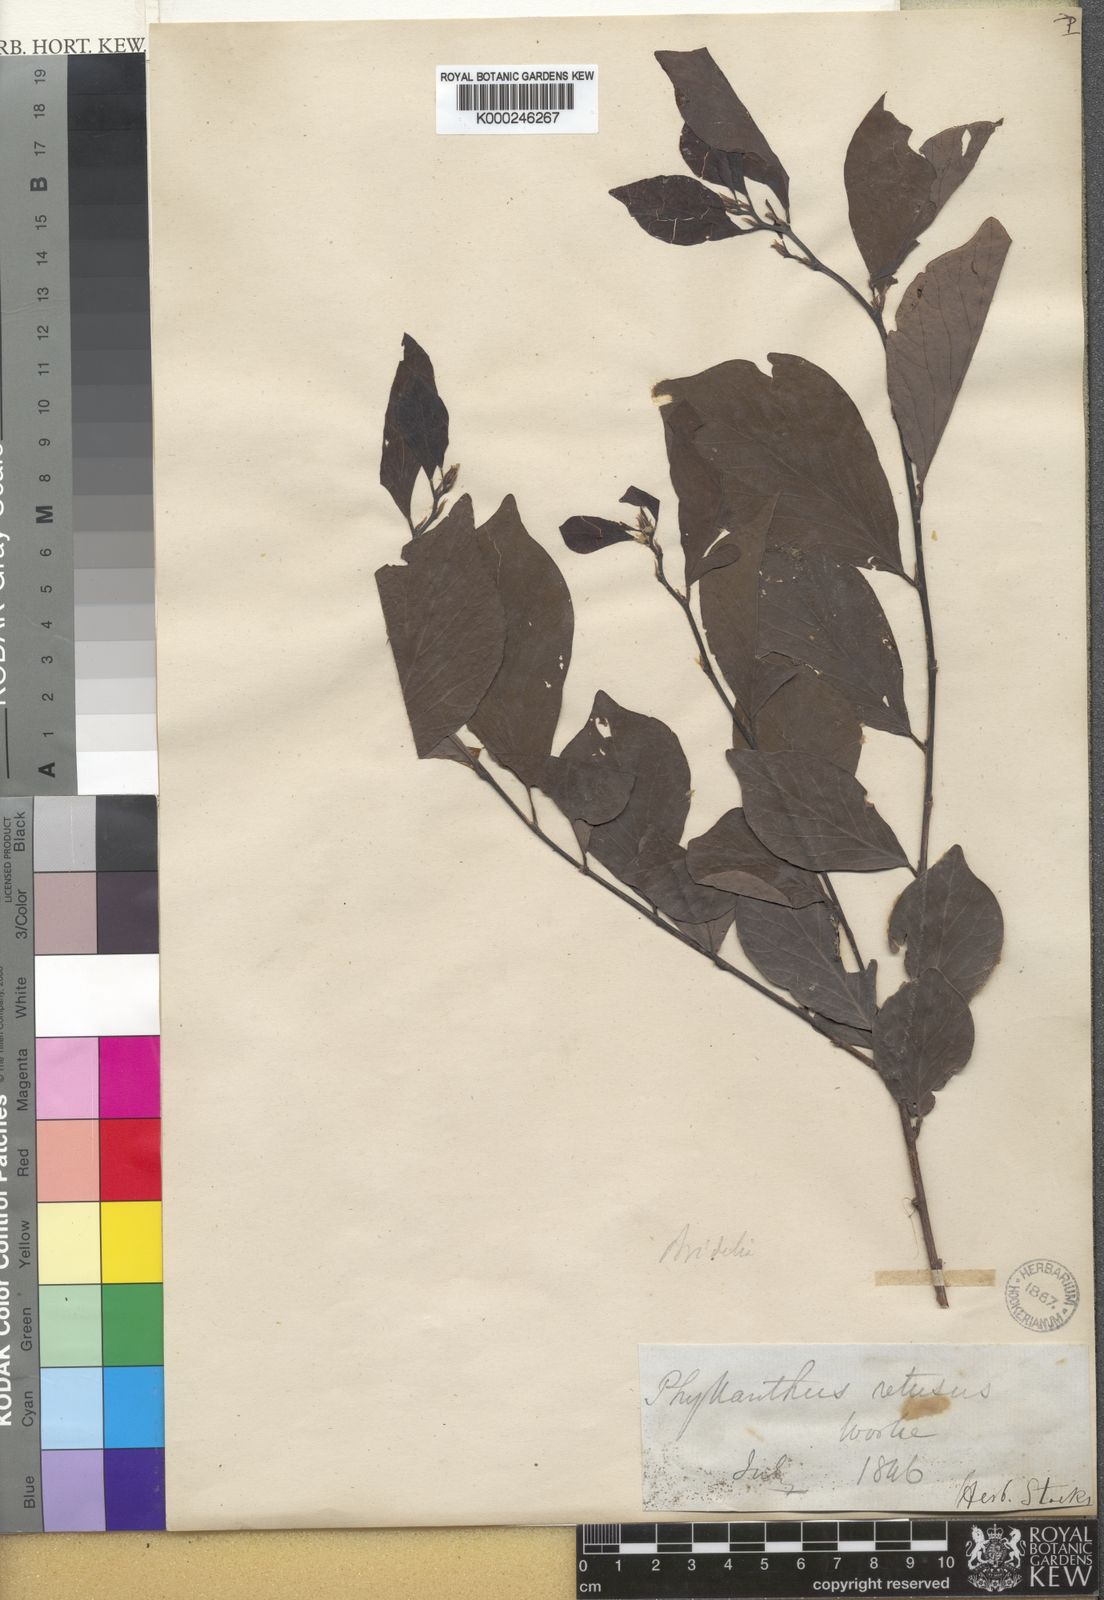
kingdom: Plantae
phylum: Tracheophyta
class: Magnoliopsida
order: Malpighiales
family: Phyllanthaceae
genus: Bridelia
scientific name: Bridelia retusa
